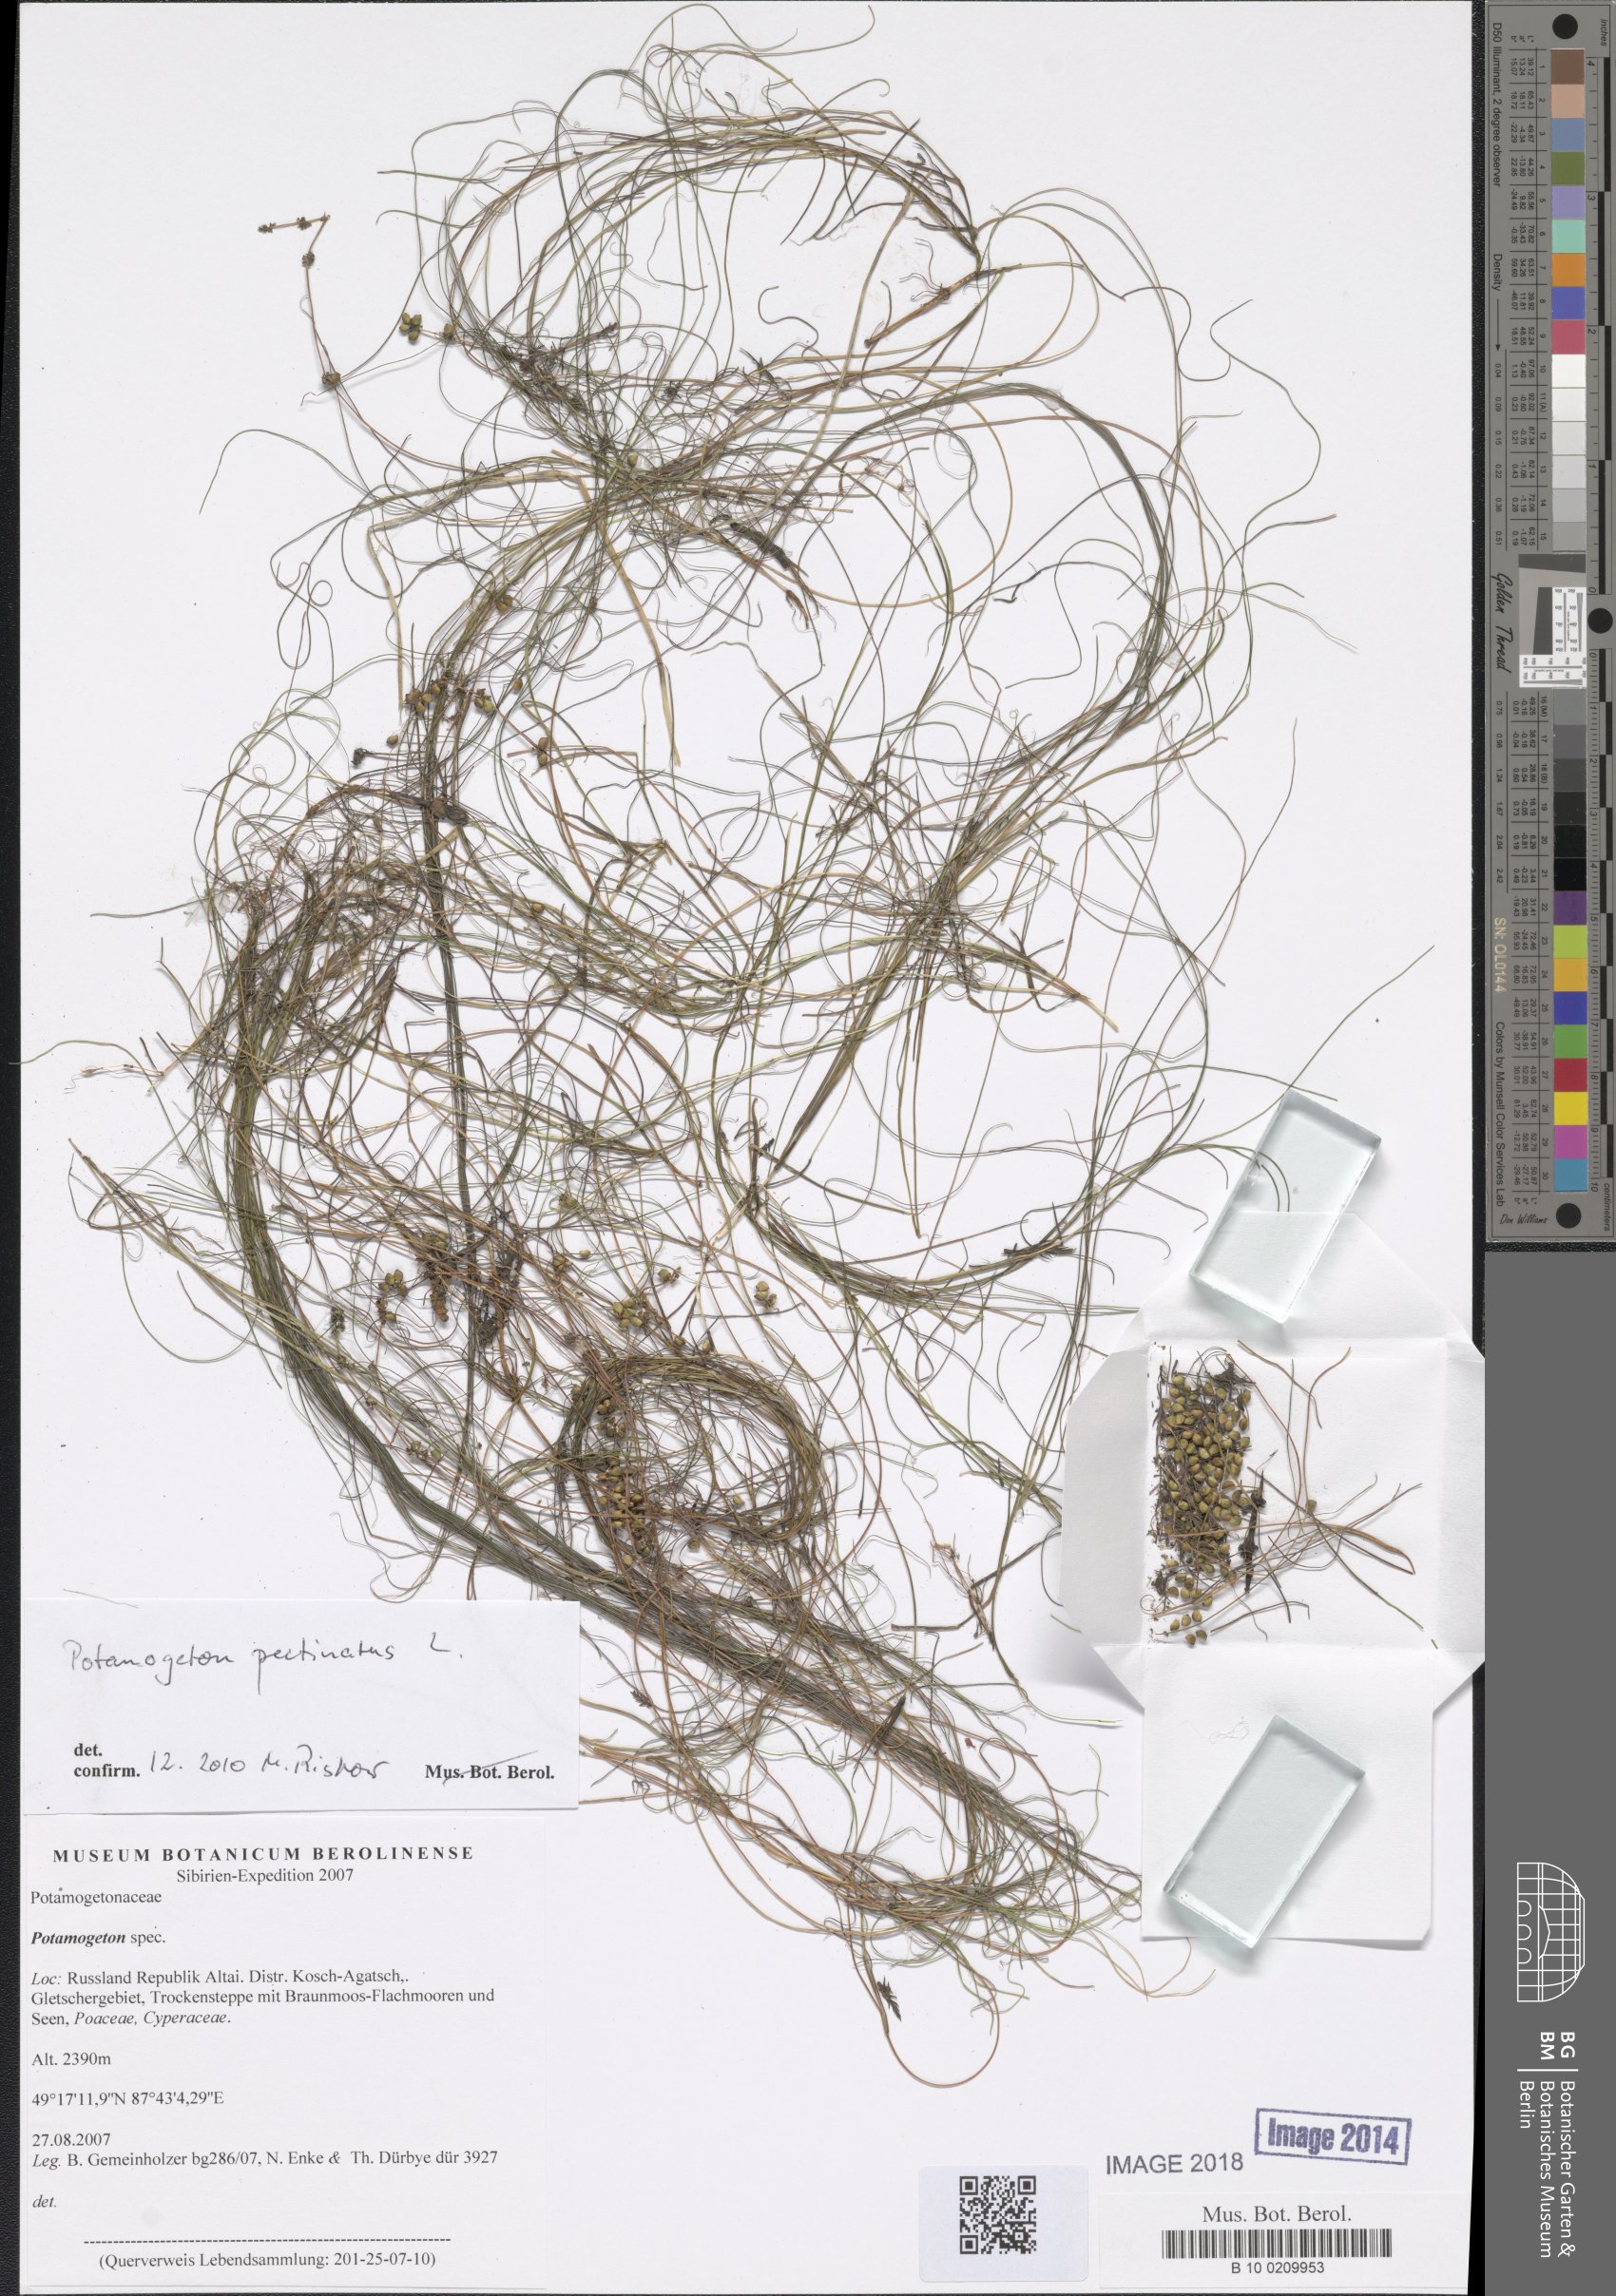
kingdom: Plantae
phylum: Tracheophyta
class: Liliopsida
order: Alismatales
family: Potamogetonaceae
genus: Stuckenia
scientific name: Stuckenia pectinata
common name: Sago pondweed
